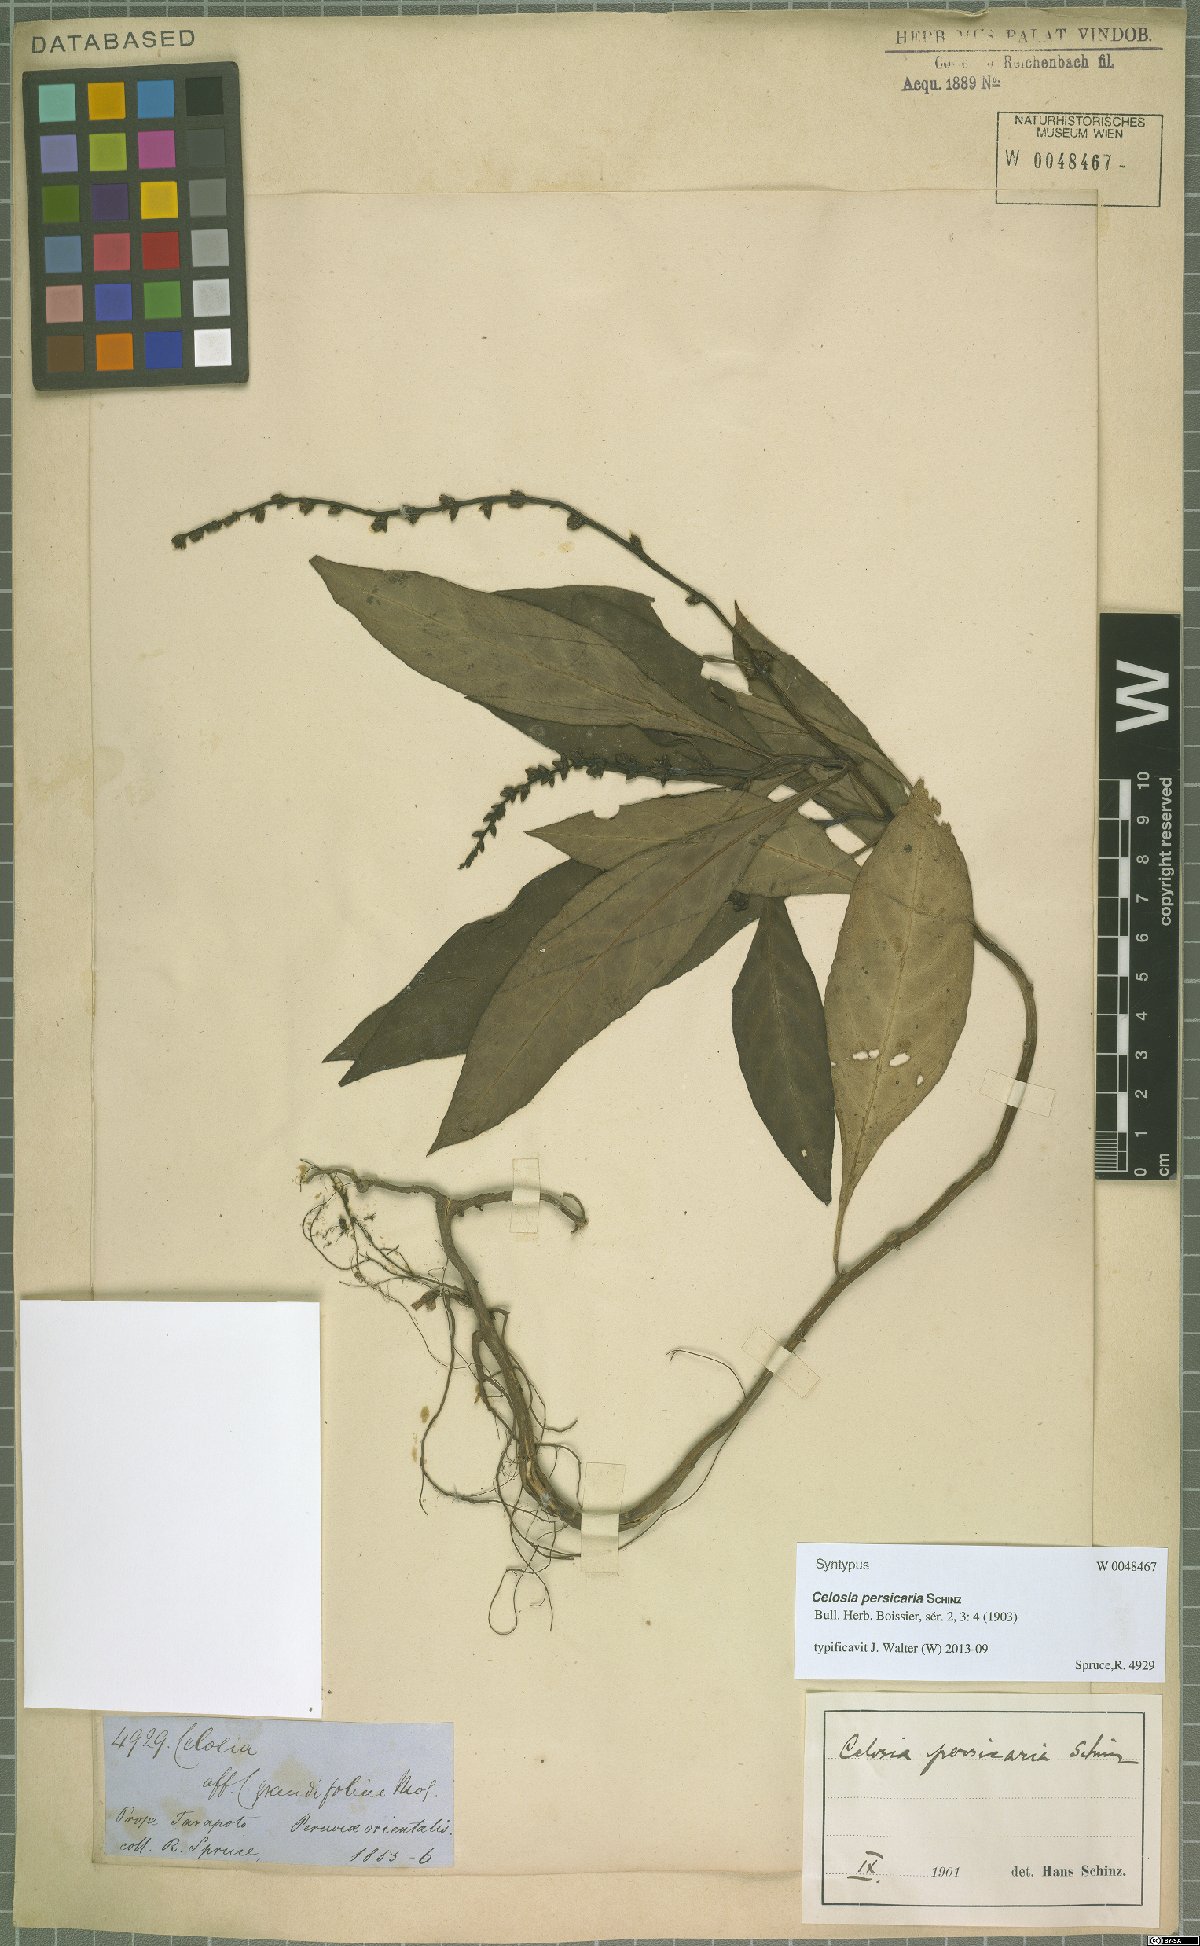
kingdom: Plantae
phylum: Tracheophyta
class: Magnoliopsida
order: Caryophyllales
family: Amaranthaceae
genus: Celosia
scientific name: Celosia persicaria
